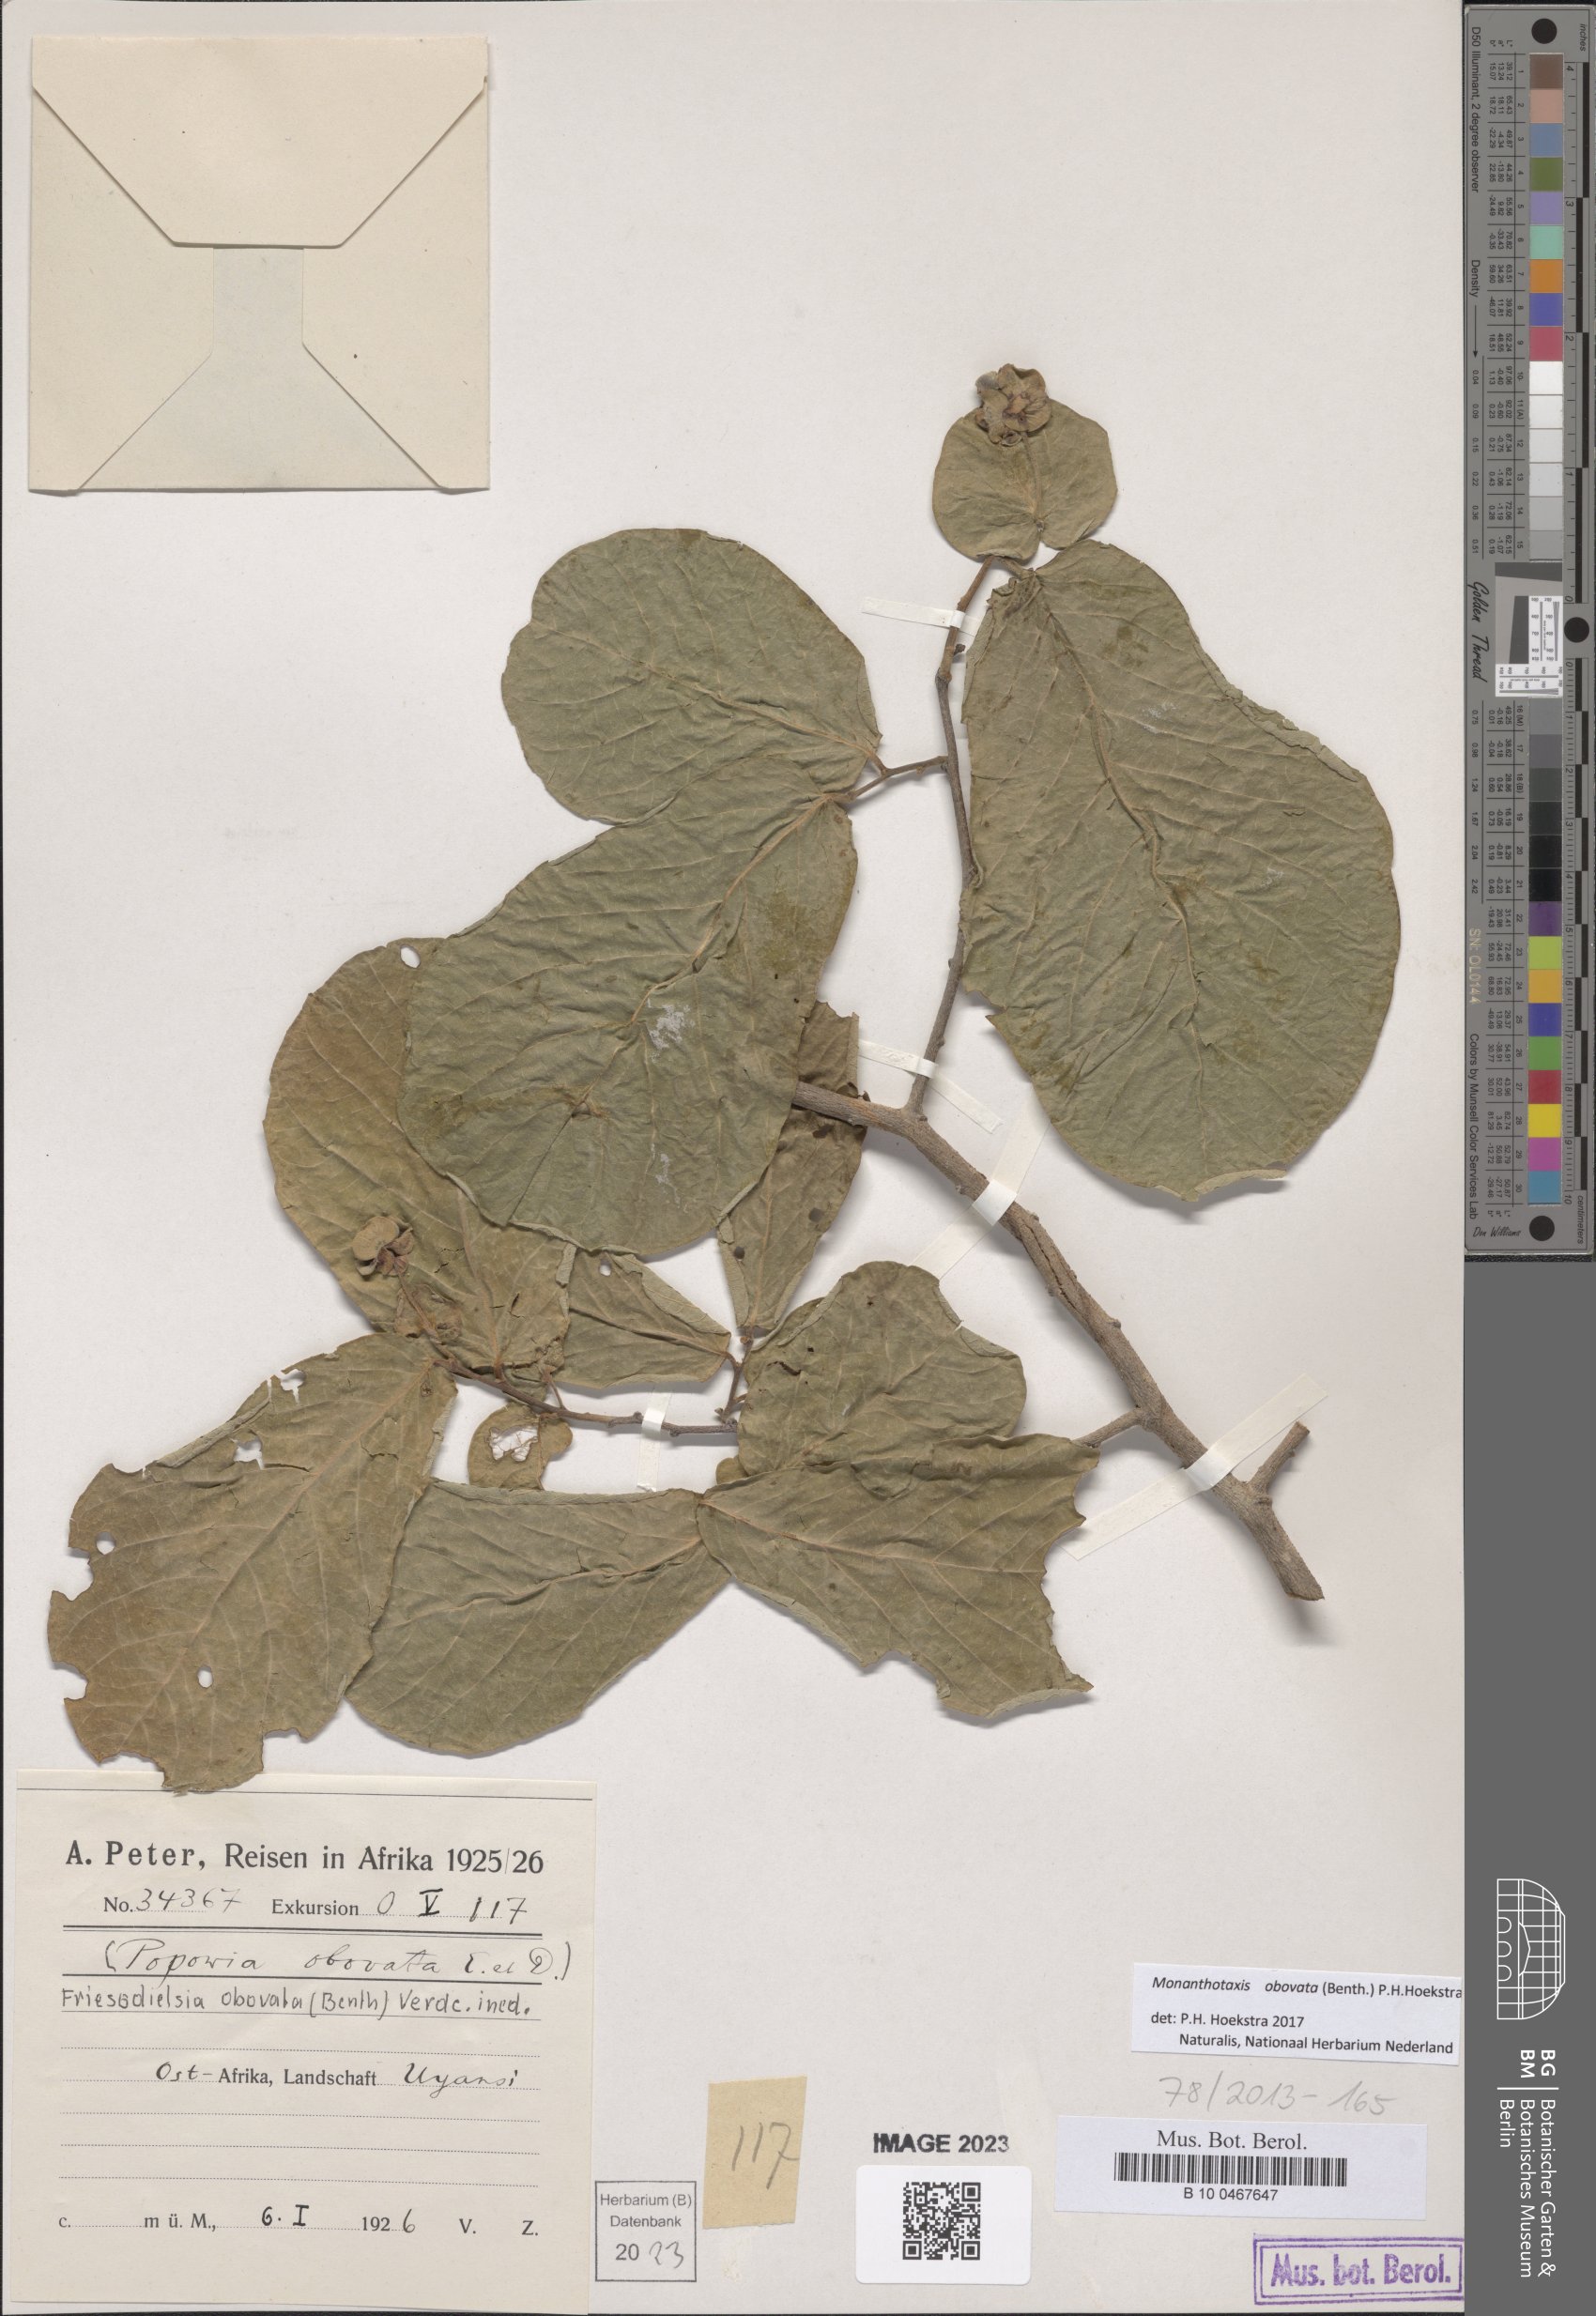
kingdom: Plantae
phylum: Tracheophyta
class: Magnoliopsida
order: Magnoliales
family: Annonaceae
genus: Friesodielsia
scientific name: Friesodielsia obovata
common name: Monkey fingers
